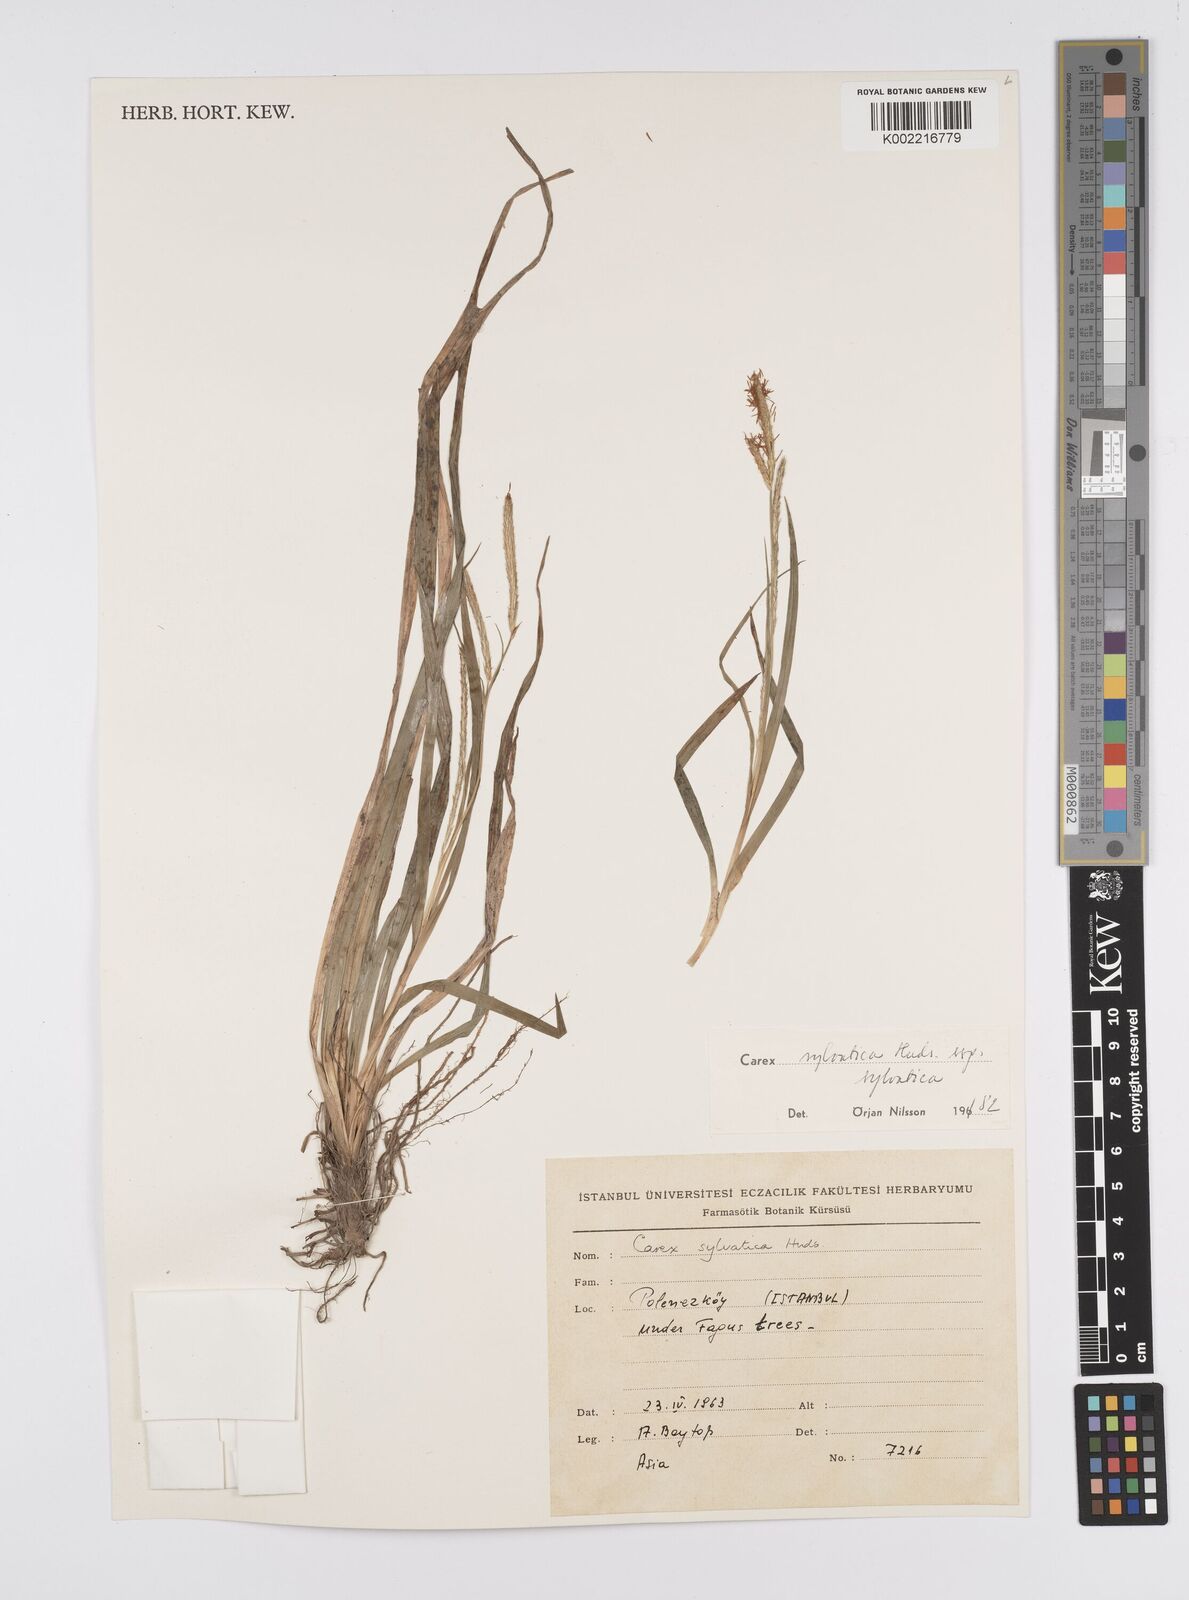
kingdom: Plantae
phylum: Tracheophyta
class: Liliopsida
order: Poales
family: Cyperaceae
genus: Carex
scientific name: Carex sylvatica
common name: Wood-sedge
